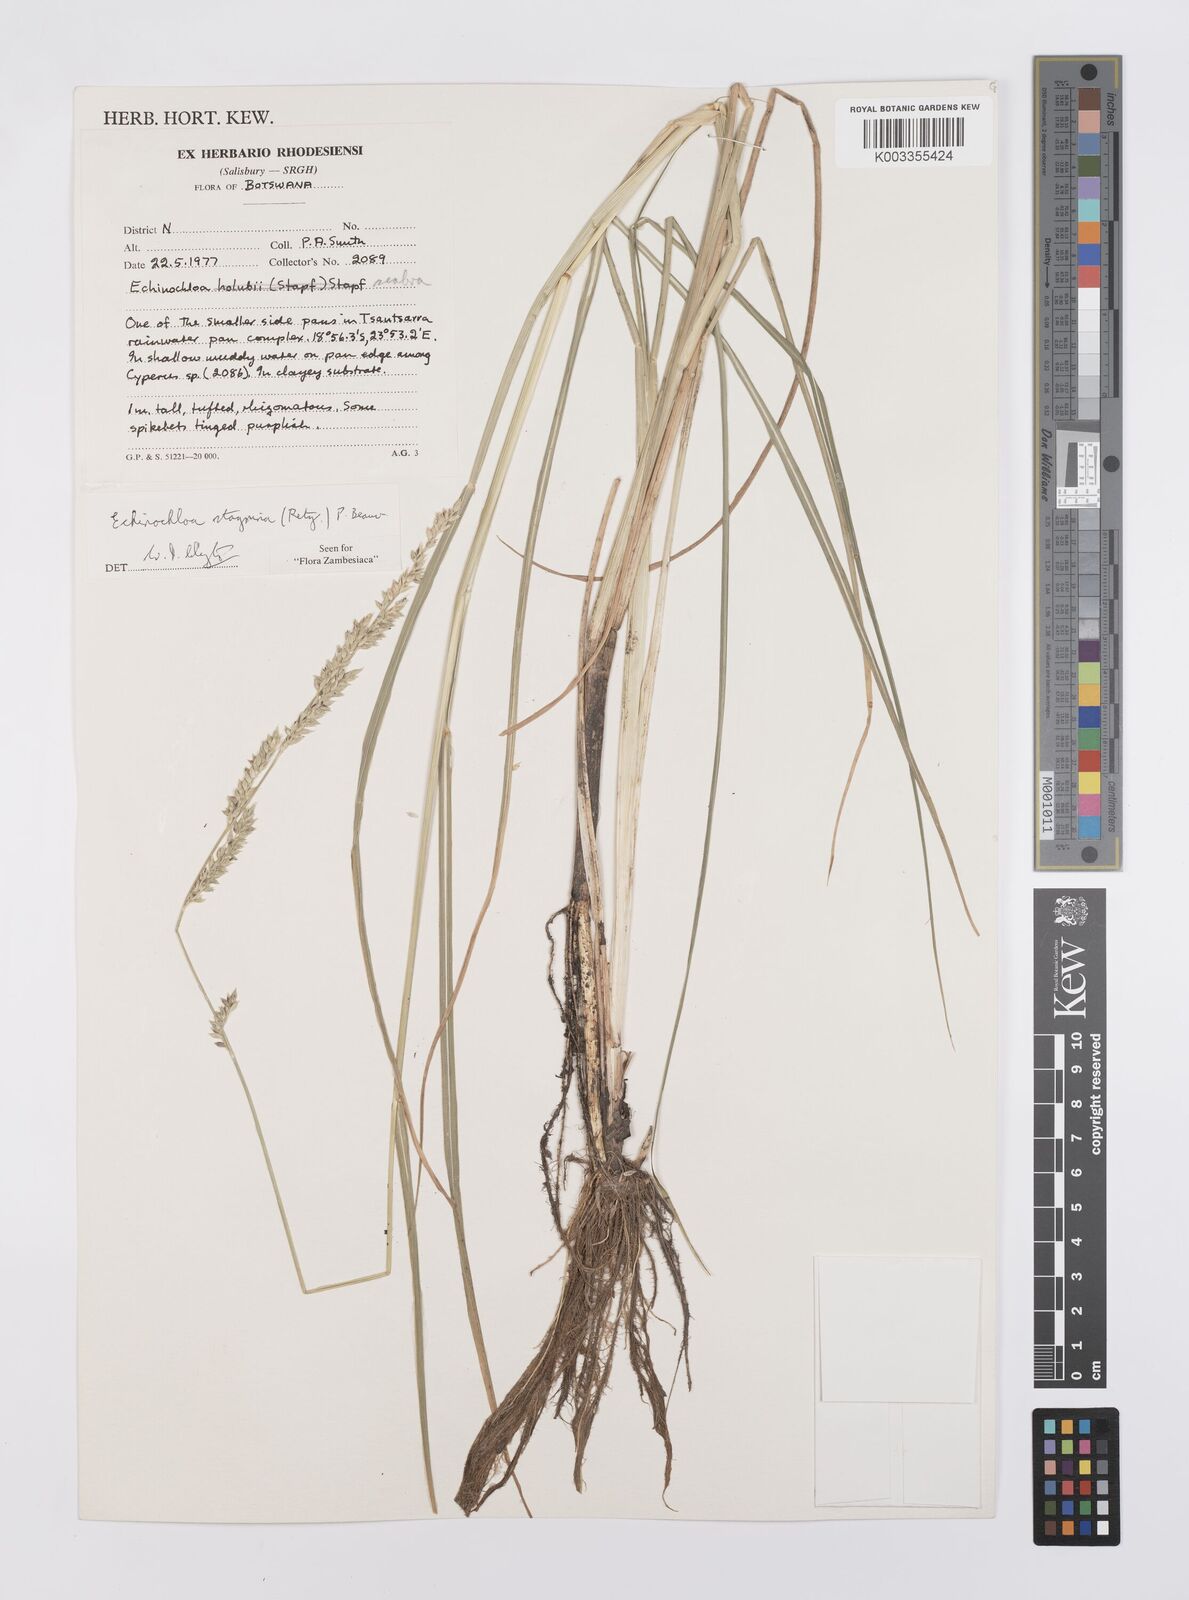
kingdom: Plantae
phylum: Tracheophyta
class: Liliopsida
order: Poales
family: Poaceae
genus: Echinochloa
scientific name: Echinochloa stagnina
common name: Burgu grass
